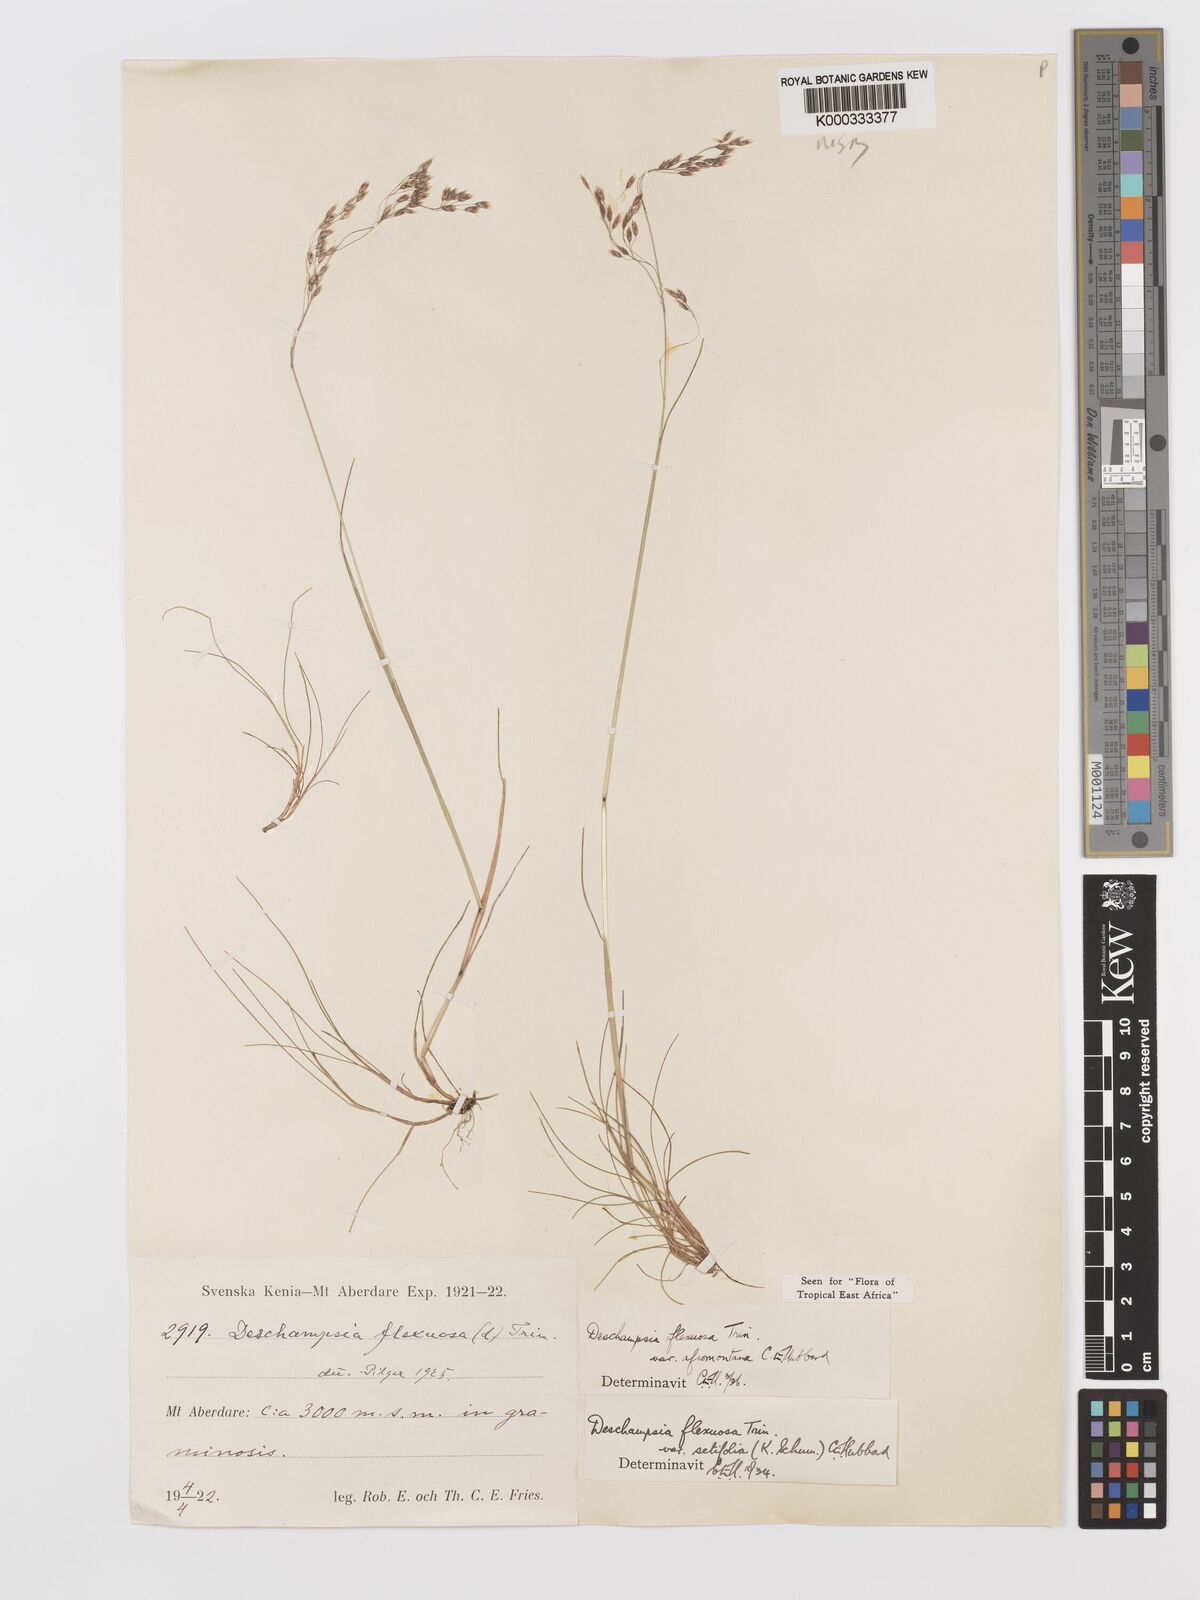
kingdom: Plantae
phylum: Tracheophyta
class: Liliopsida
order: Poales
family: Poaceae
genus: Avenella
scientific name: Avenella flexuosa
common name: Wavy hairgrass
